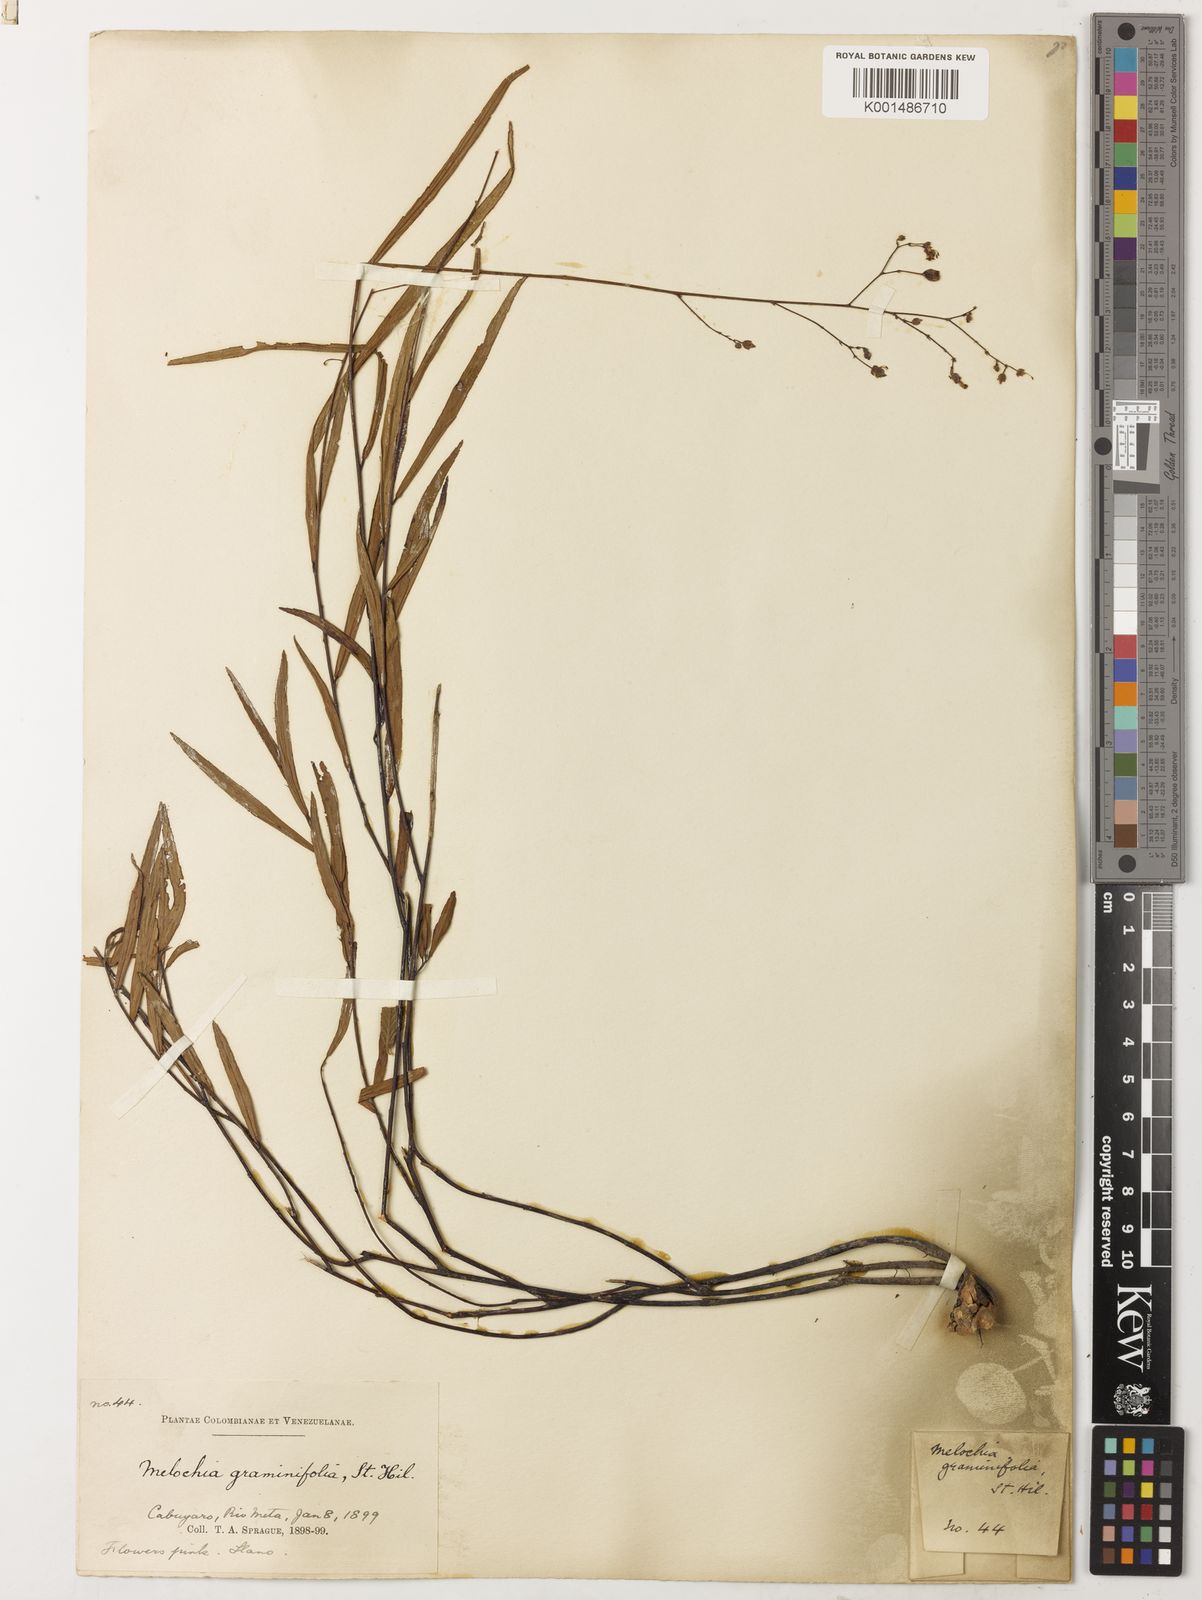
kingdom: Plantae
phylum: Tracheophyta
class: Magnoliopsida
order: Malvales
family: Malvaceae
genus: Melochia
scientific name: Melochia graminifolia
